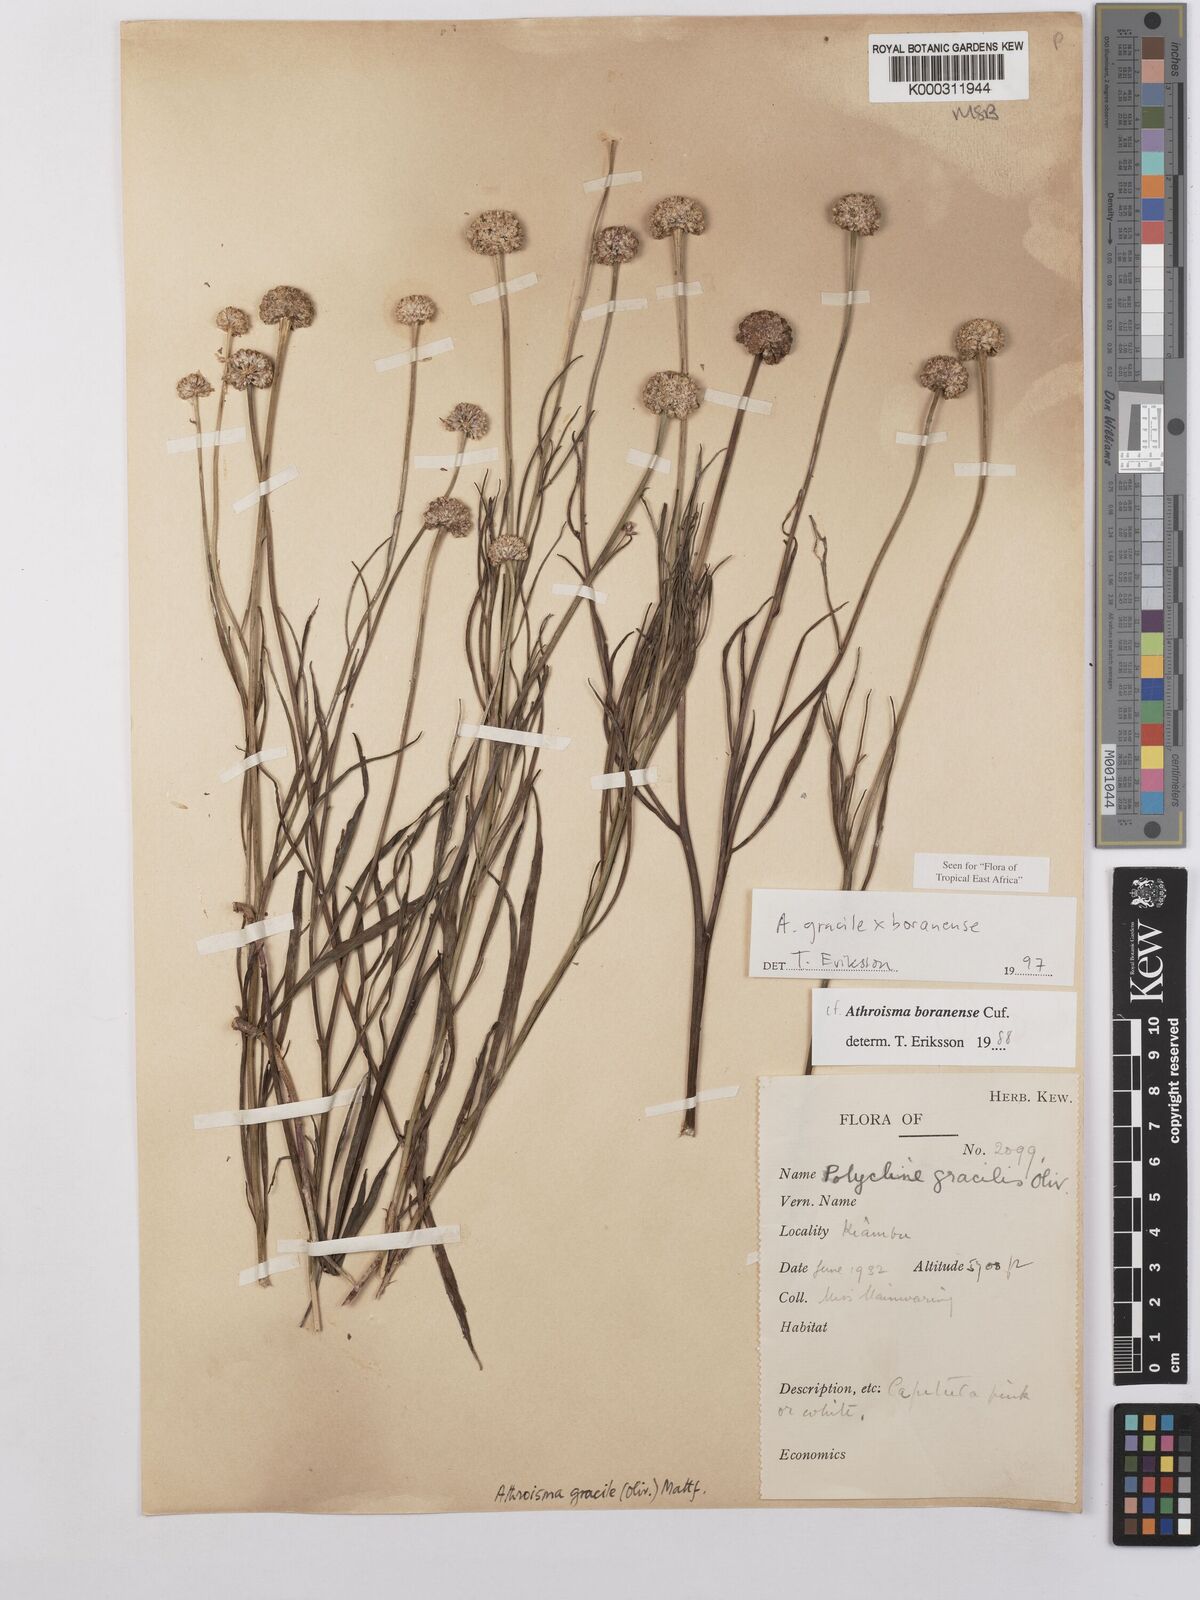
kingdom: Plantae
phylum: Tracheophyta
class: Magnoliopsida
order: Asterales
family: Asteraceae
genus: Athroisma
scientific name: Athroisma
